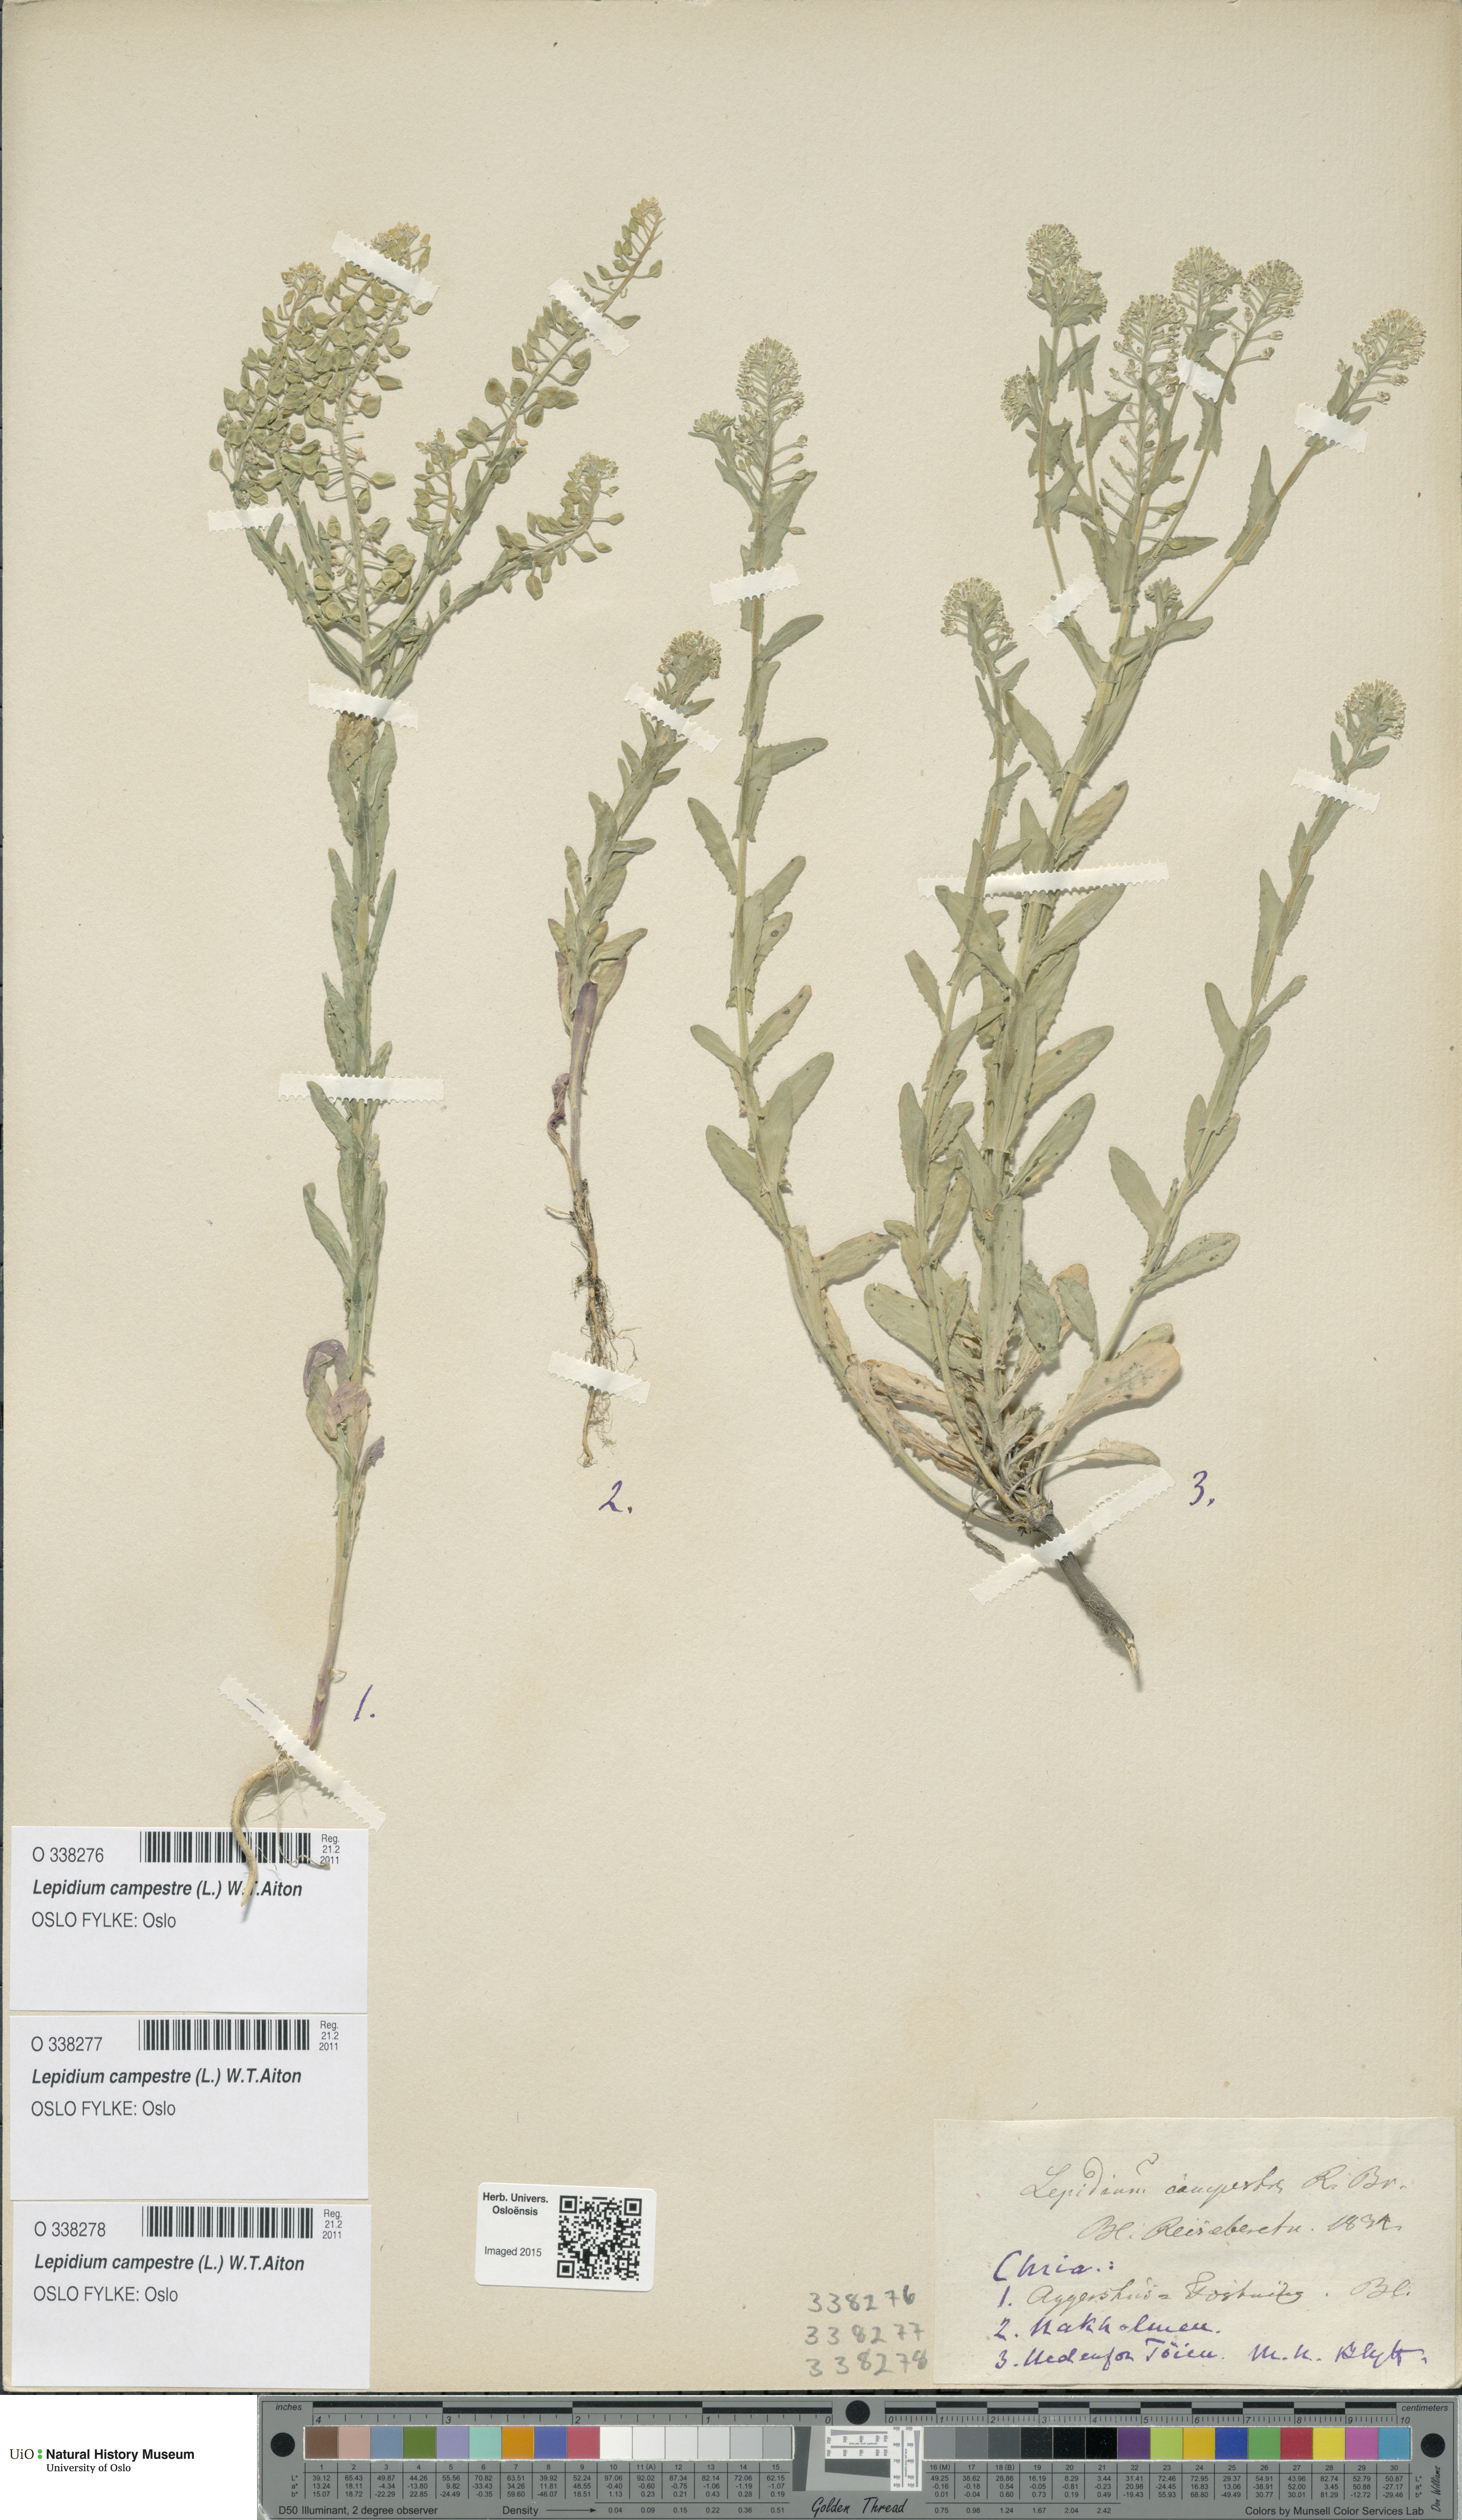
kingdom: Plantae
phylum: Tracheophyta
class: Magnoliopsida
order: Brassicales
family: Brassicaceae
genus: Lepidium
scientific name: Lepidium campestre
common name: Field pepperwort
